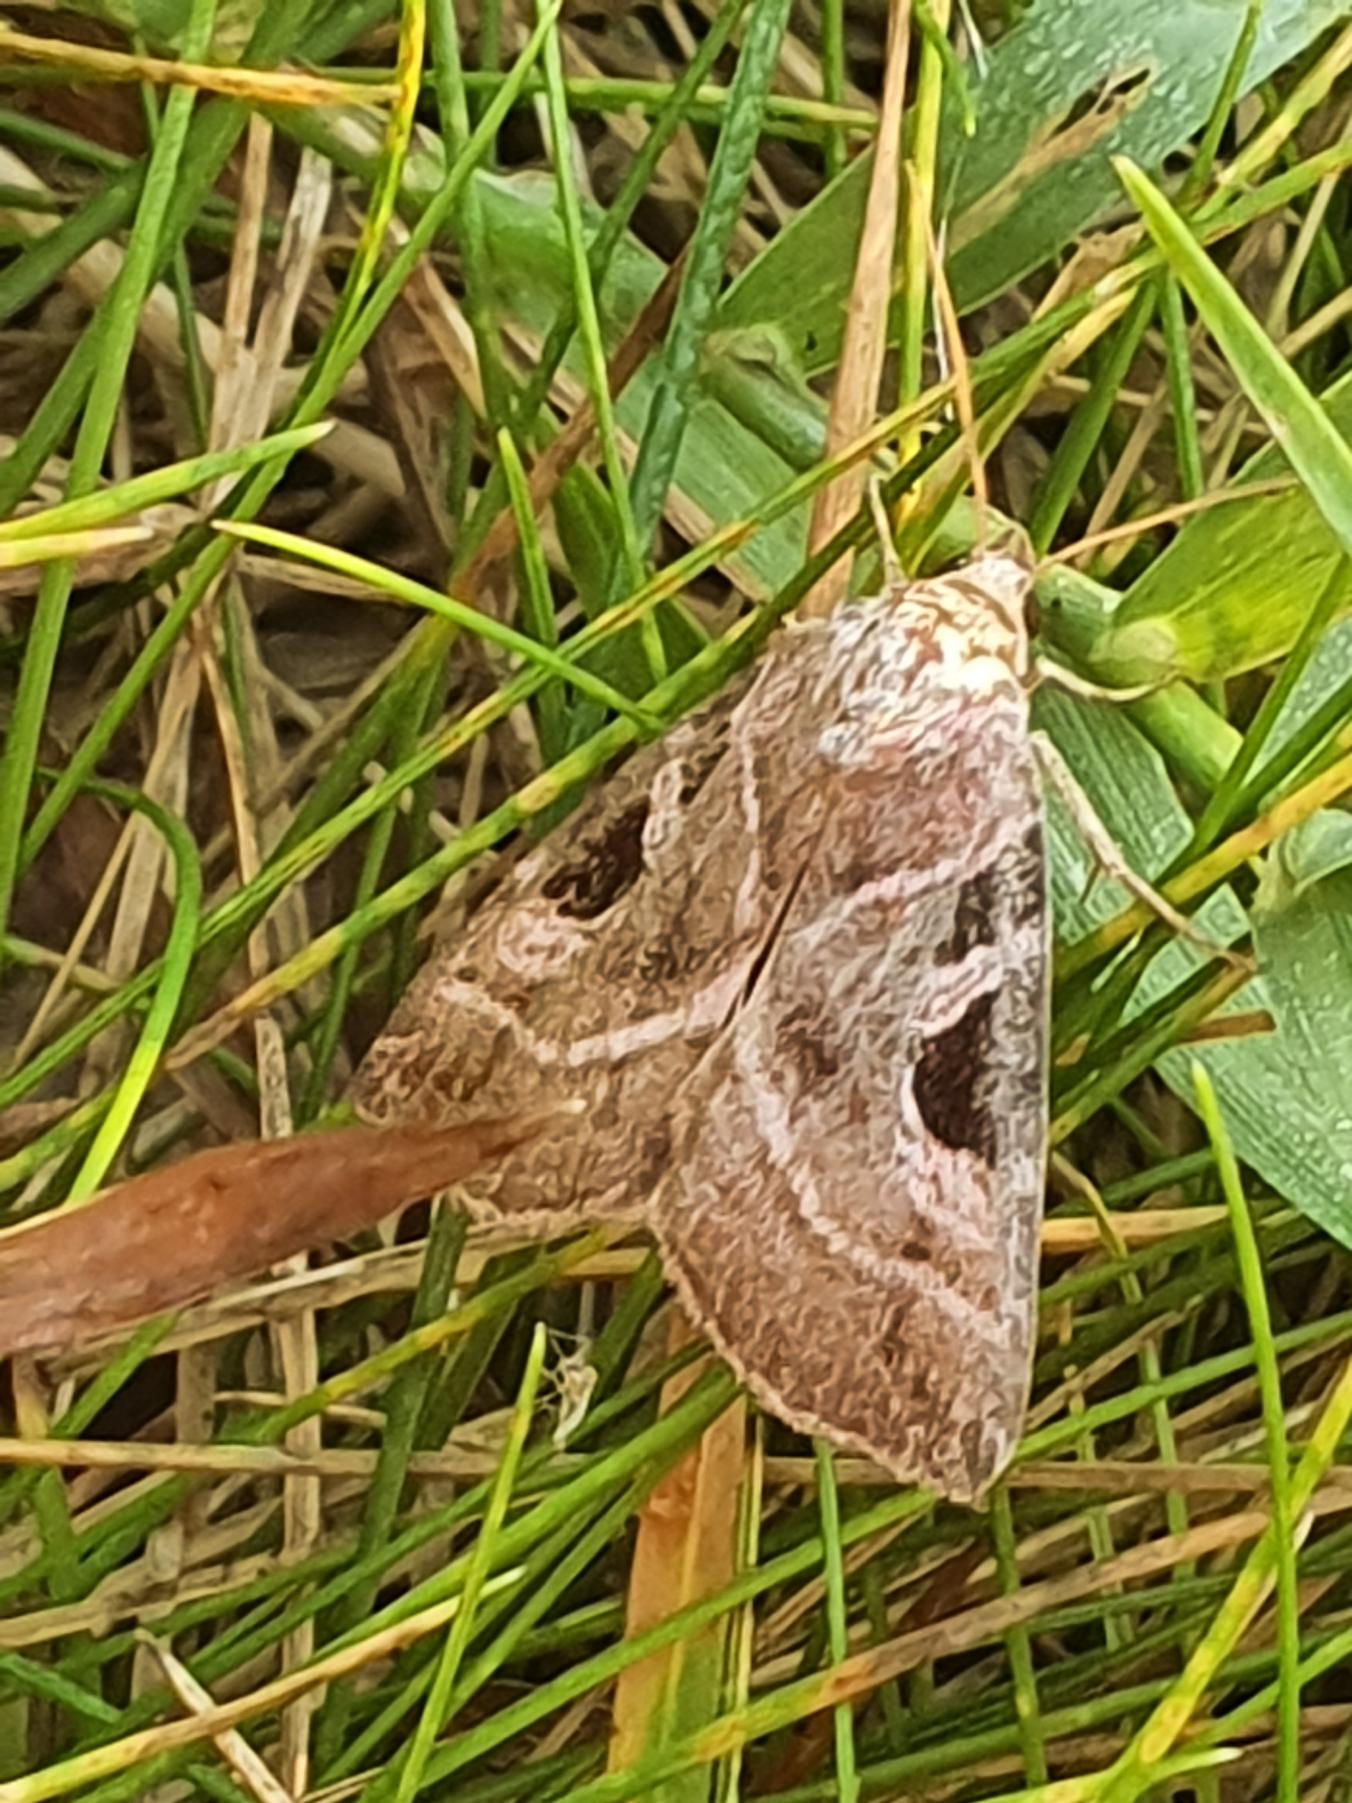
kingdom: Animalia
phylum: Arthropoda
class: Insecta
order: Lepidoptera
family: Noctuidae
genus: Eucarta
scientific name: Eucarta virgo
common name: Grålig cyklameugle
